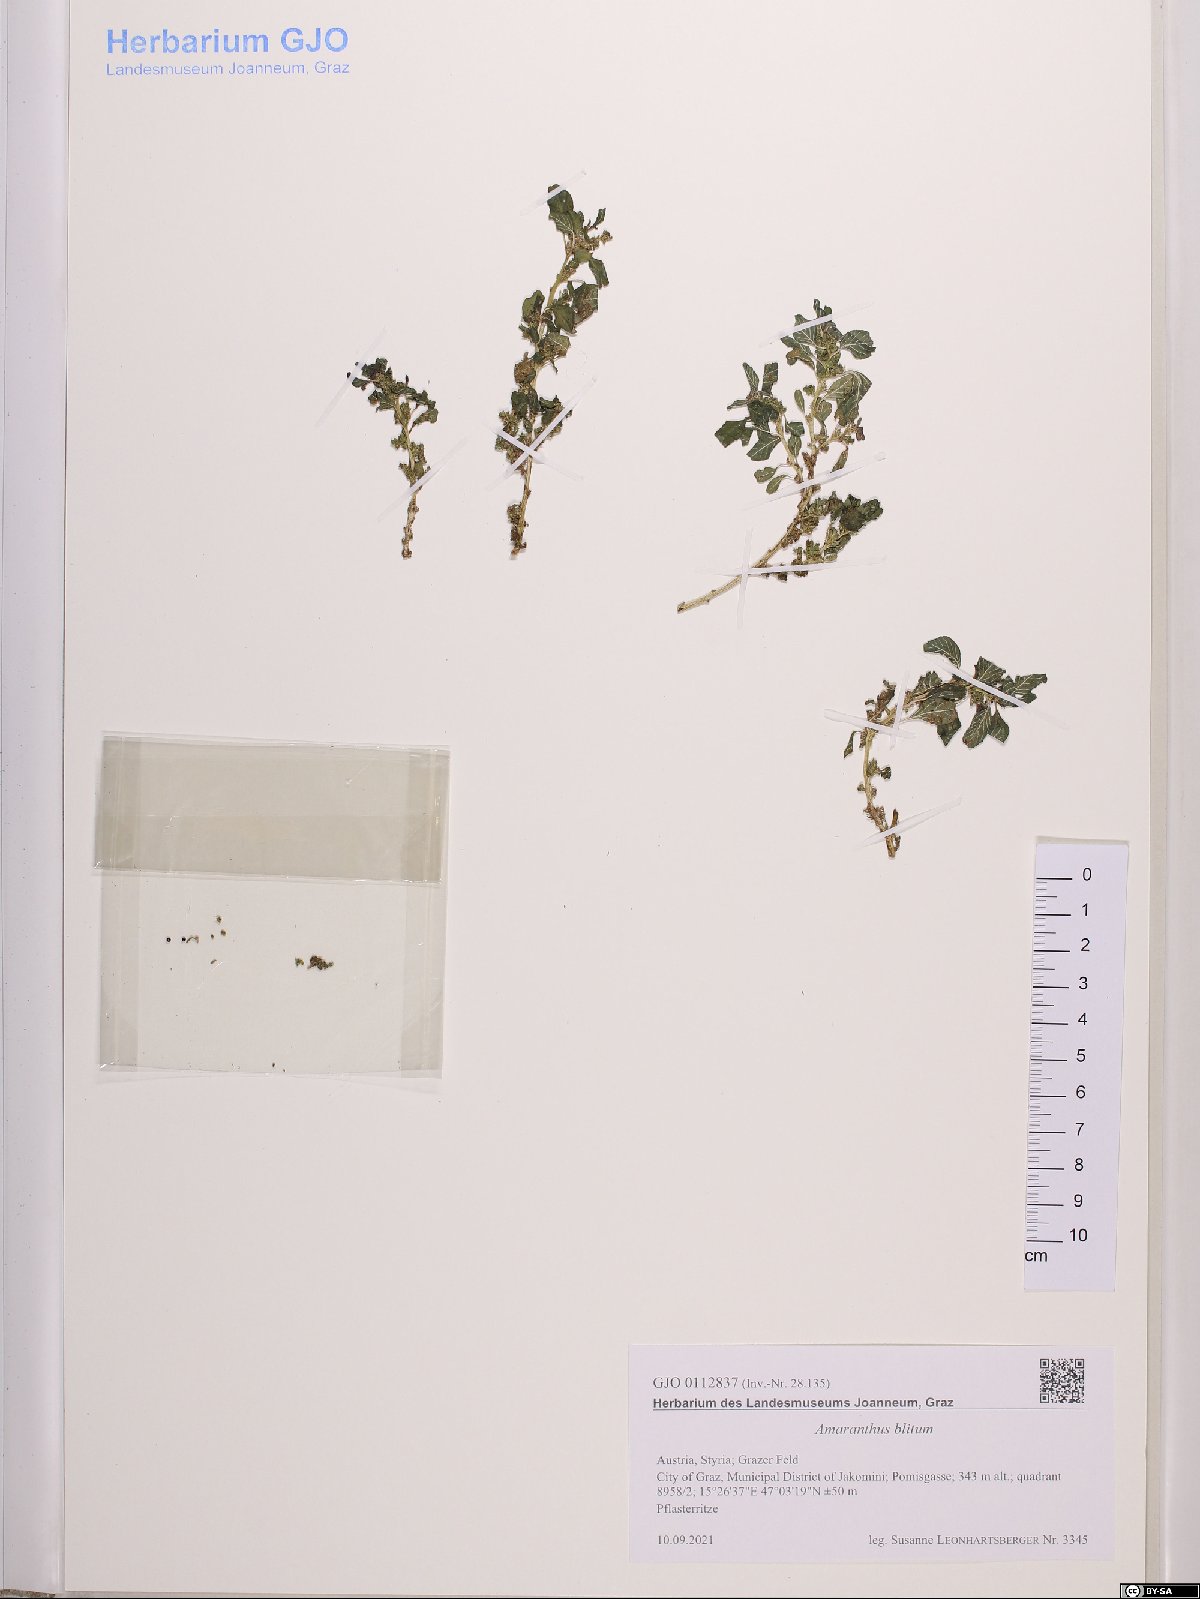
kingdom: Plantae
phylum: Tracheophyta
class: Magnoliopsida
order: Caryophyllales
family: Amaranthaceae
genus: Amaranthus
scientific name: Amaranthus blitum
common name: Purple amaranth
